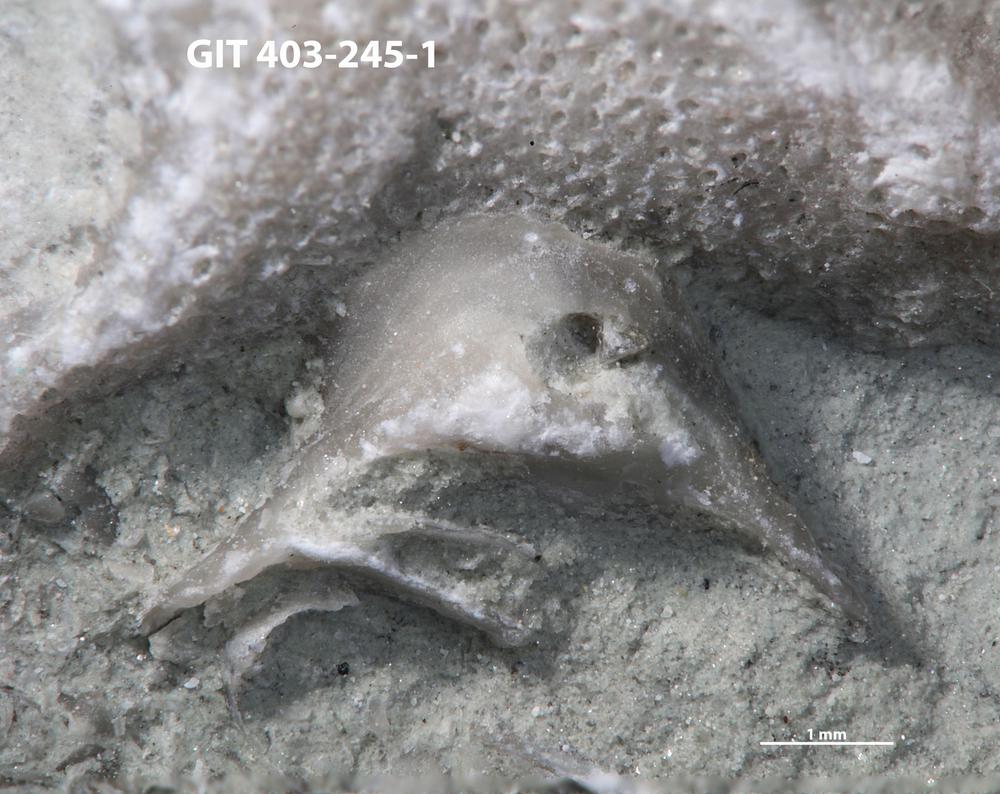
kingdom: Animalia
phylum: Mollusca
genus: Anticalyptraea
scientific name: Anticalyptraea westergaardi
